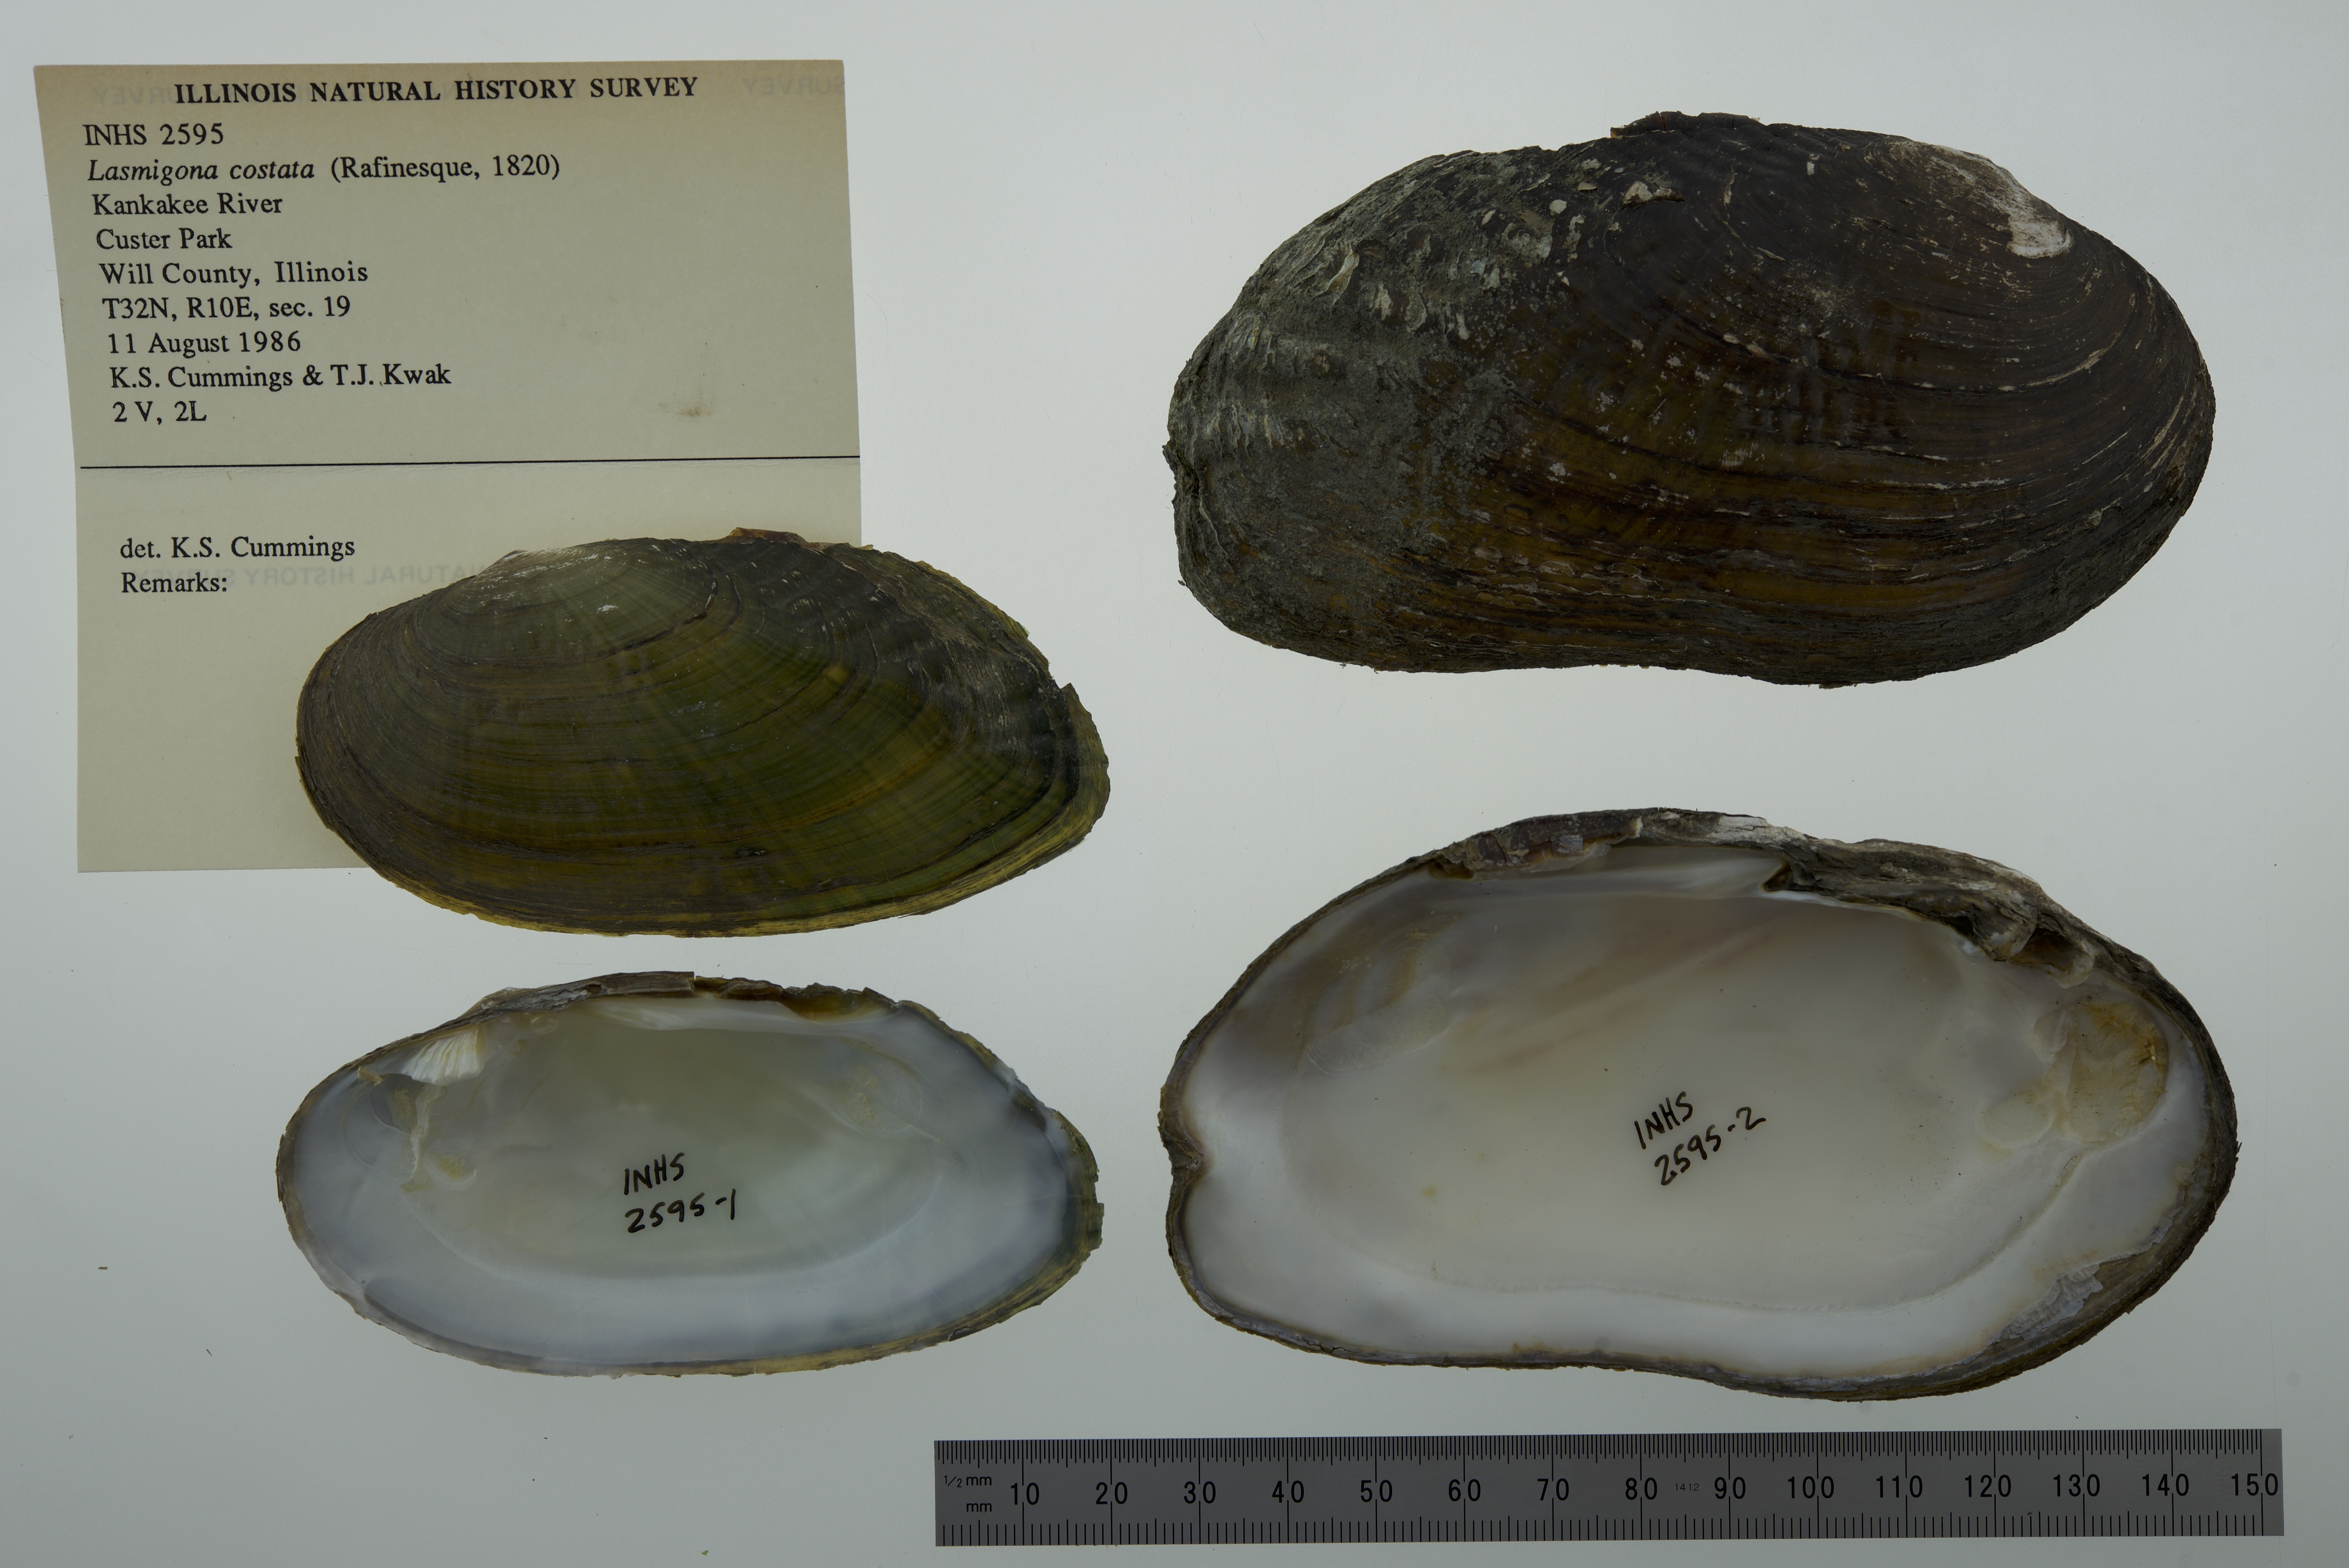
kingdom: Animalia
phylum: Mollusca
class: Bivalvia
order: Unionida
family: Unionidae
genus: Lasmigona
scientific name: Lasmigona costata
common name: Flutedshell
